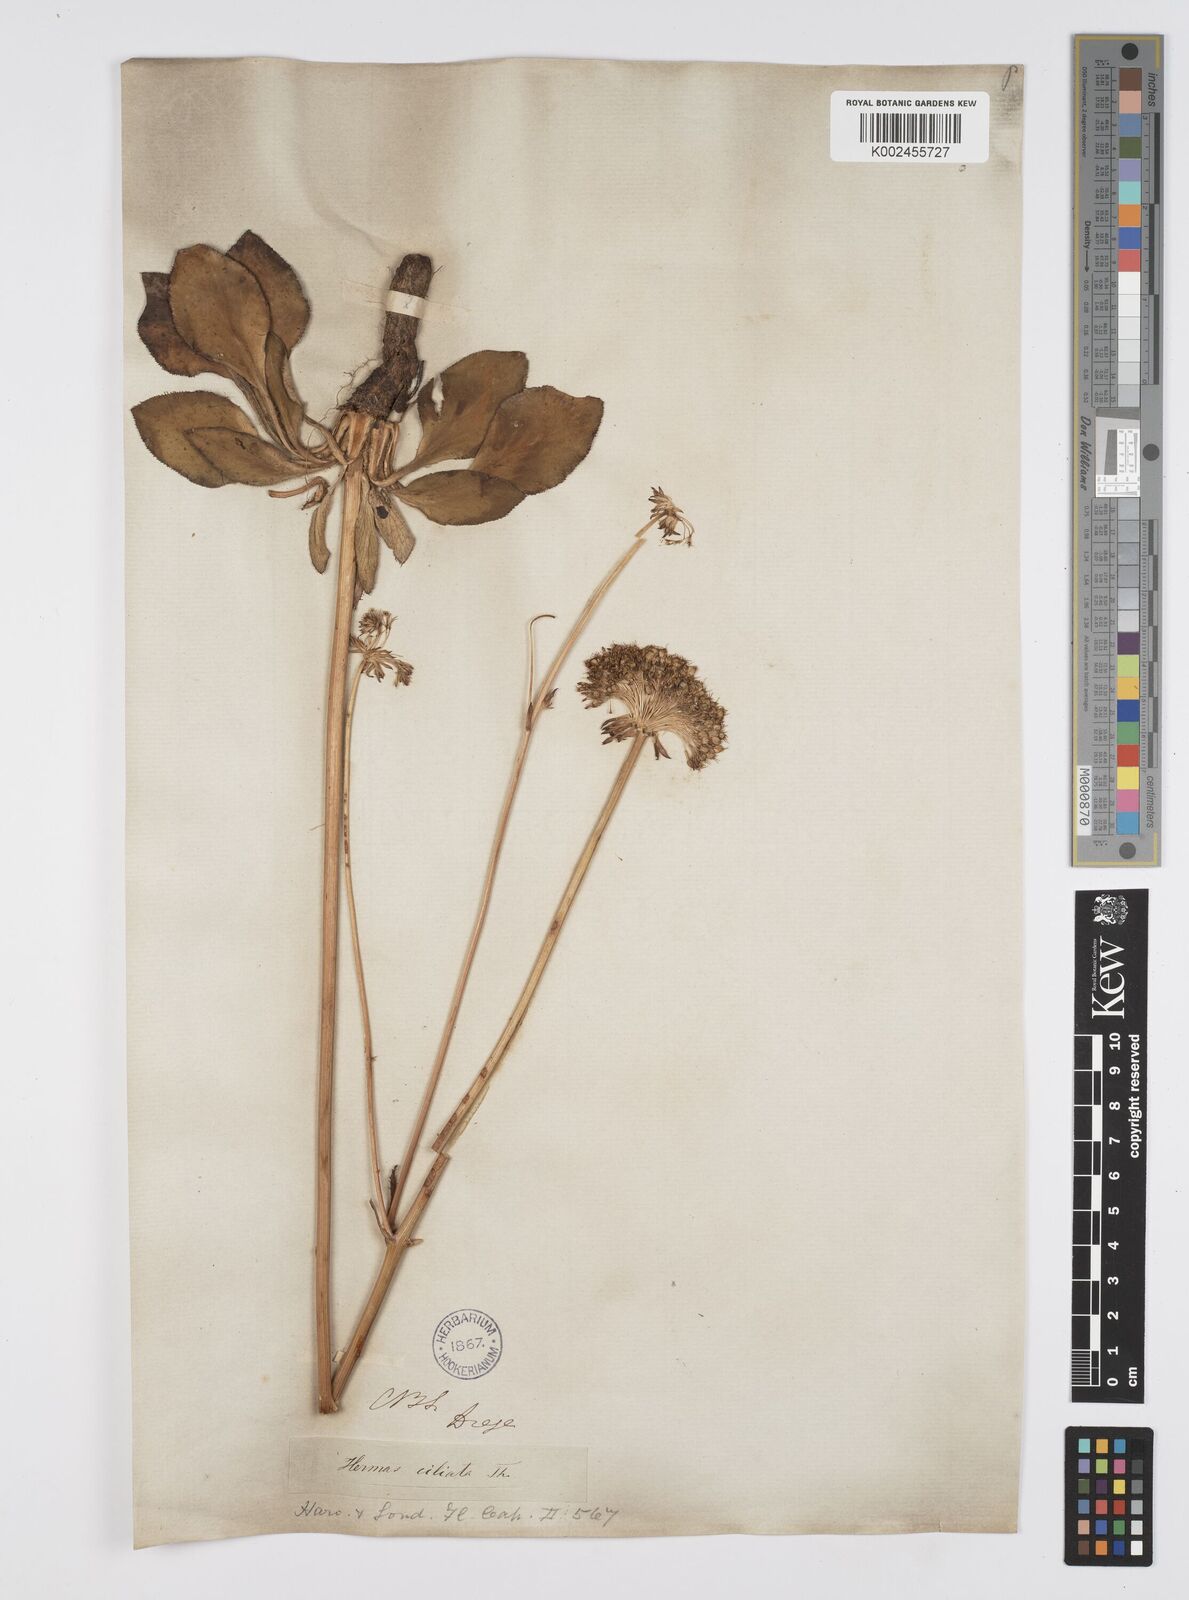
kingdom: Plantae
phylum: Tracheophyta
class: Magnoliopsida
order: Apiales
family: Apiaceae
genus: Hermas
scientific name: Hermas ciliata
